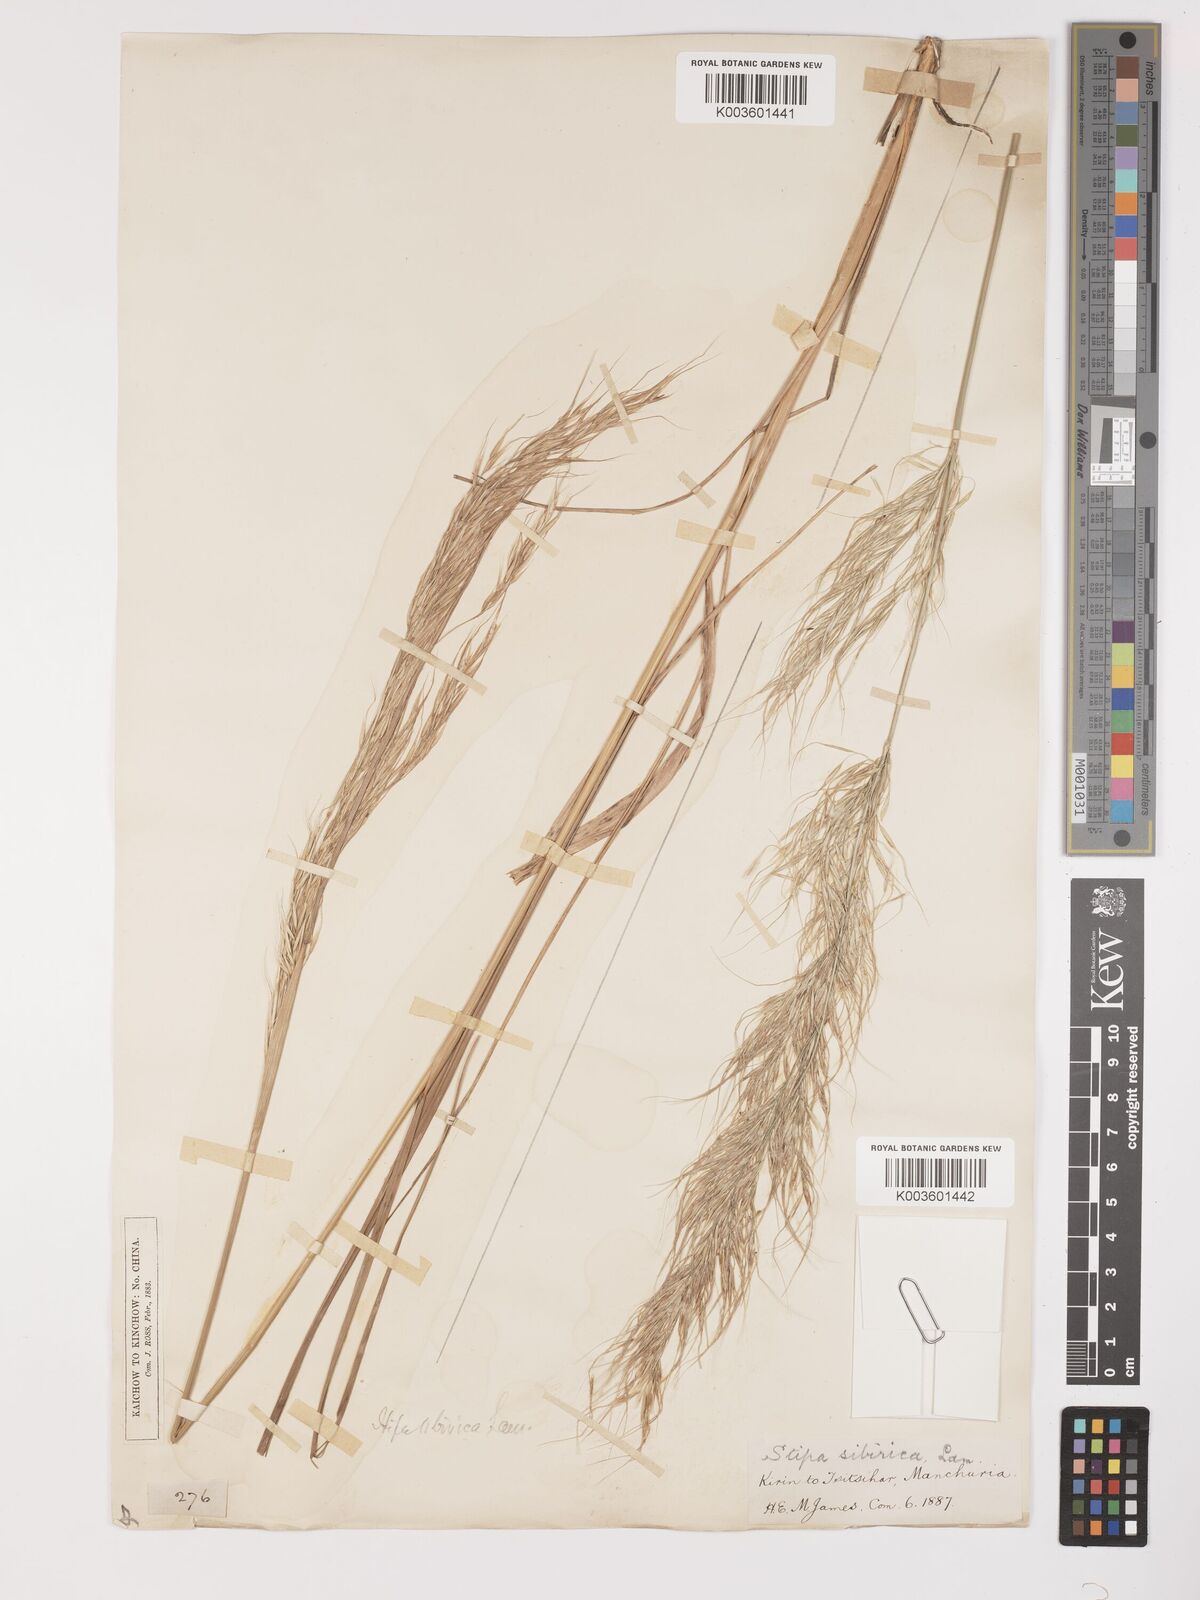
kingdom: Plantae
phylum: Tracheophyta
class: Liliopsida
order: Poales
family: Poaceae
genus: Achnatherum
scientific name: Achnatherum sibiricum
